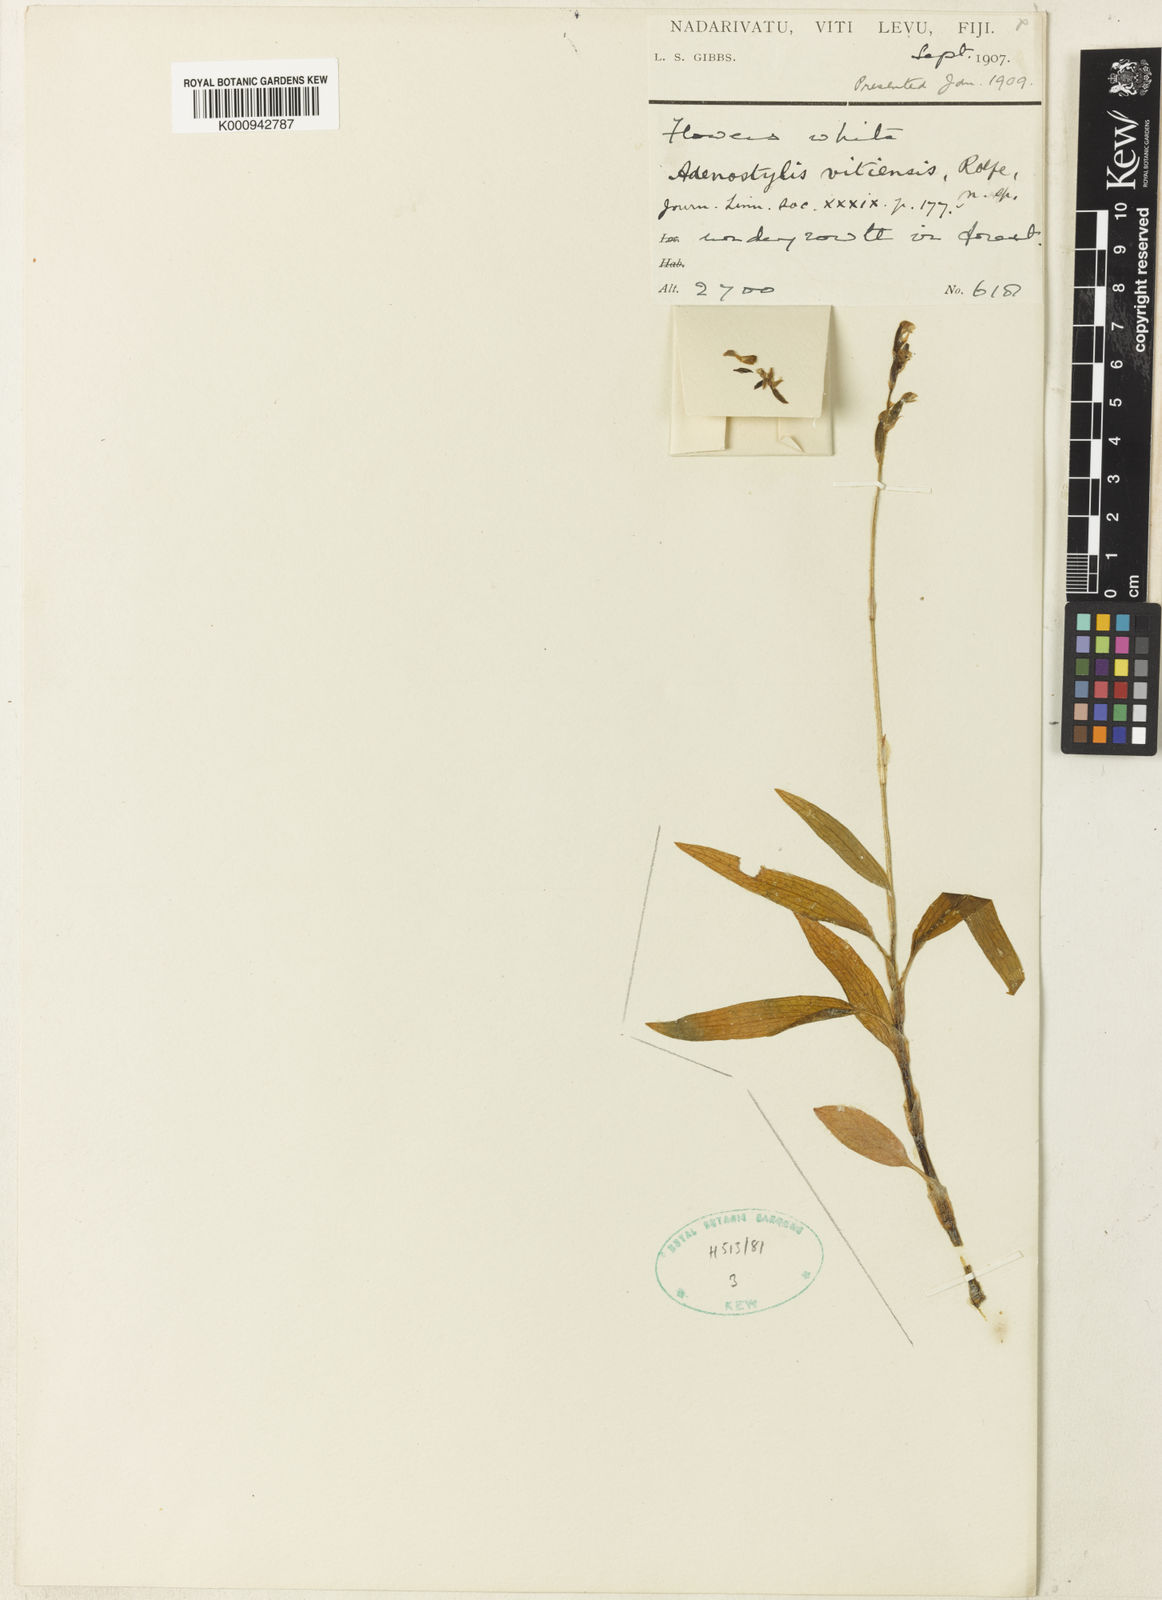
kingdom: Plantae
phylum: Tracheophyta
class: Liliopsida
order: Asparagales
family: Orchidaceae
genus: Zeuxine
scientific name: Zeuxine stenophylla
